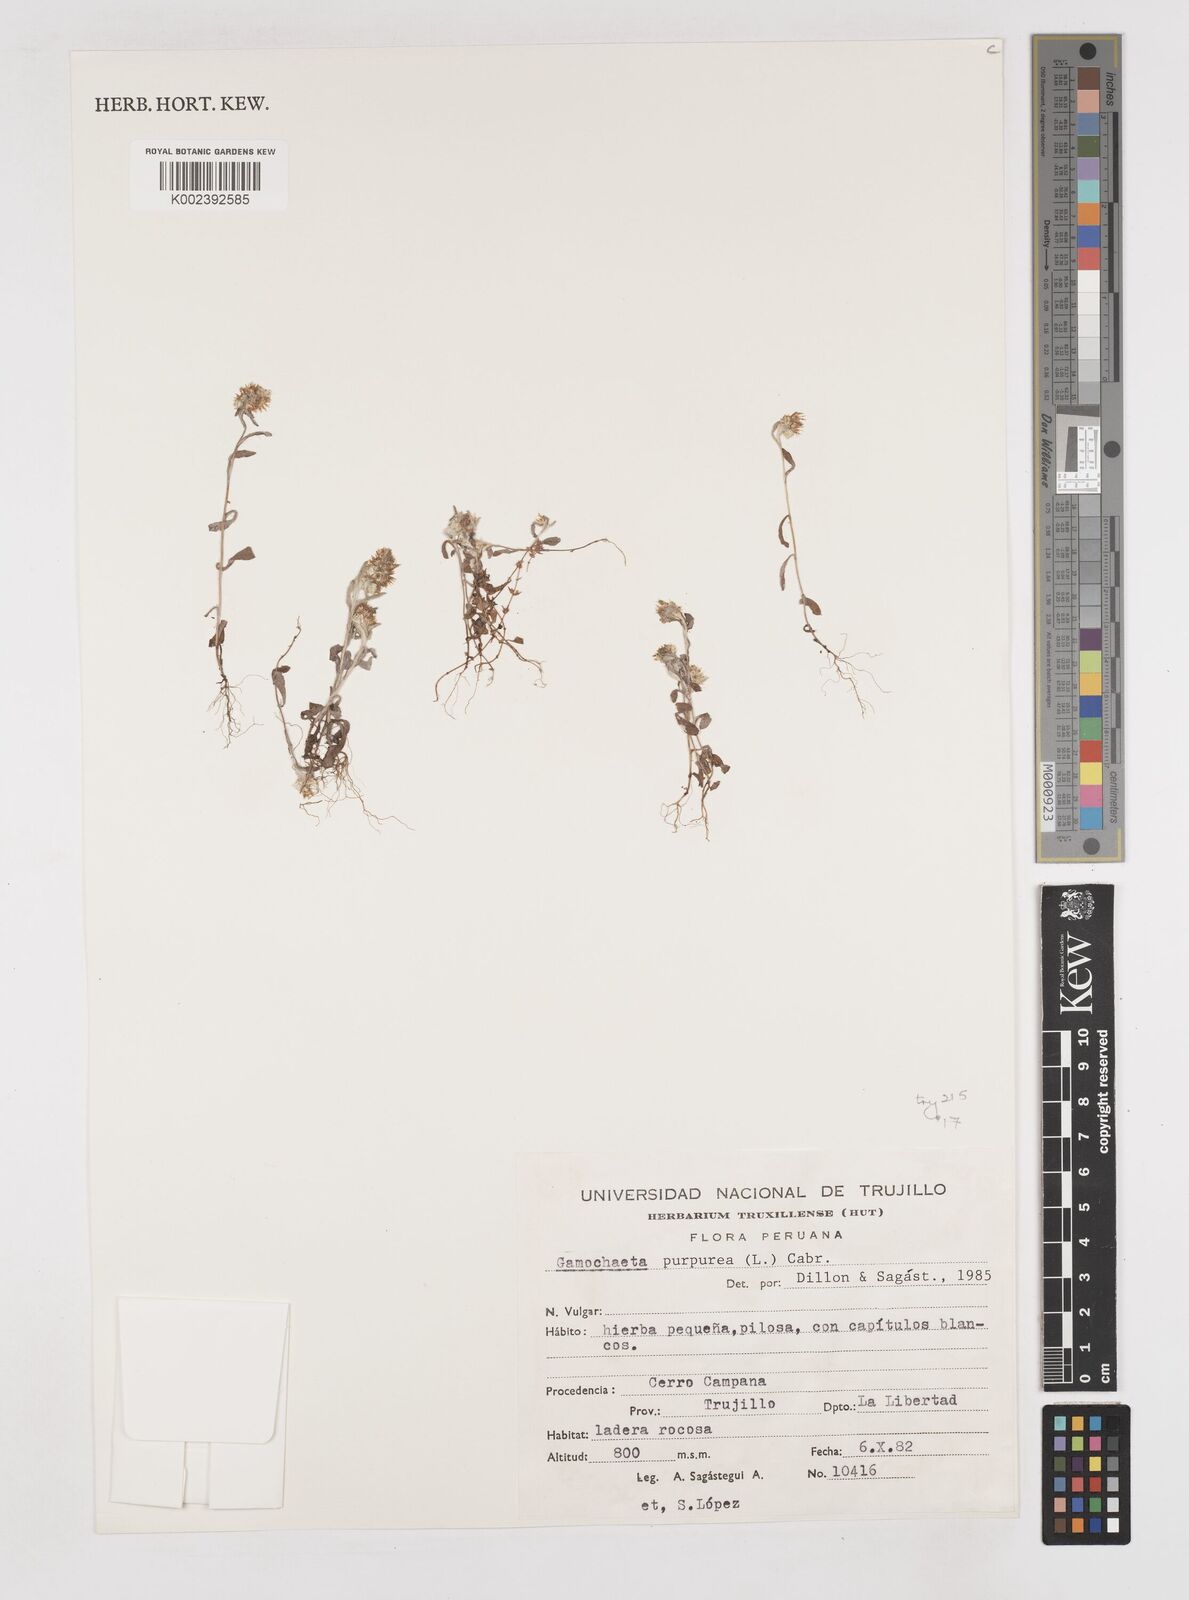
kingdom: Plantae
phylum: Tracheophyta
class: Magnoliopsida
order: Asterales
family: Asteraceae
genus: Pseudognaphalium
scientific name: Pseudognaphalium purpurascens
